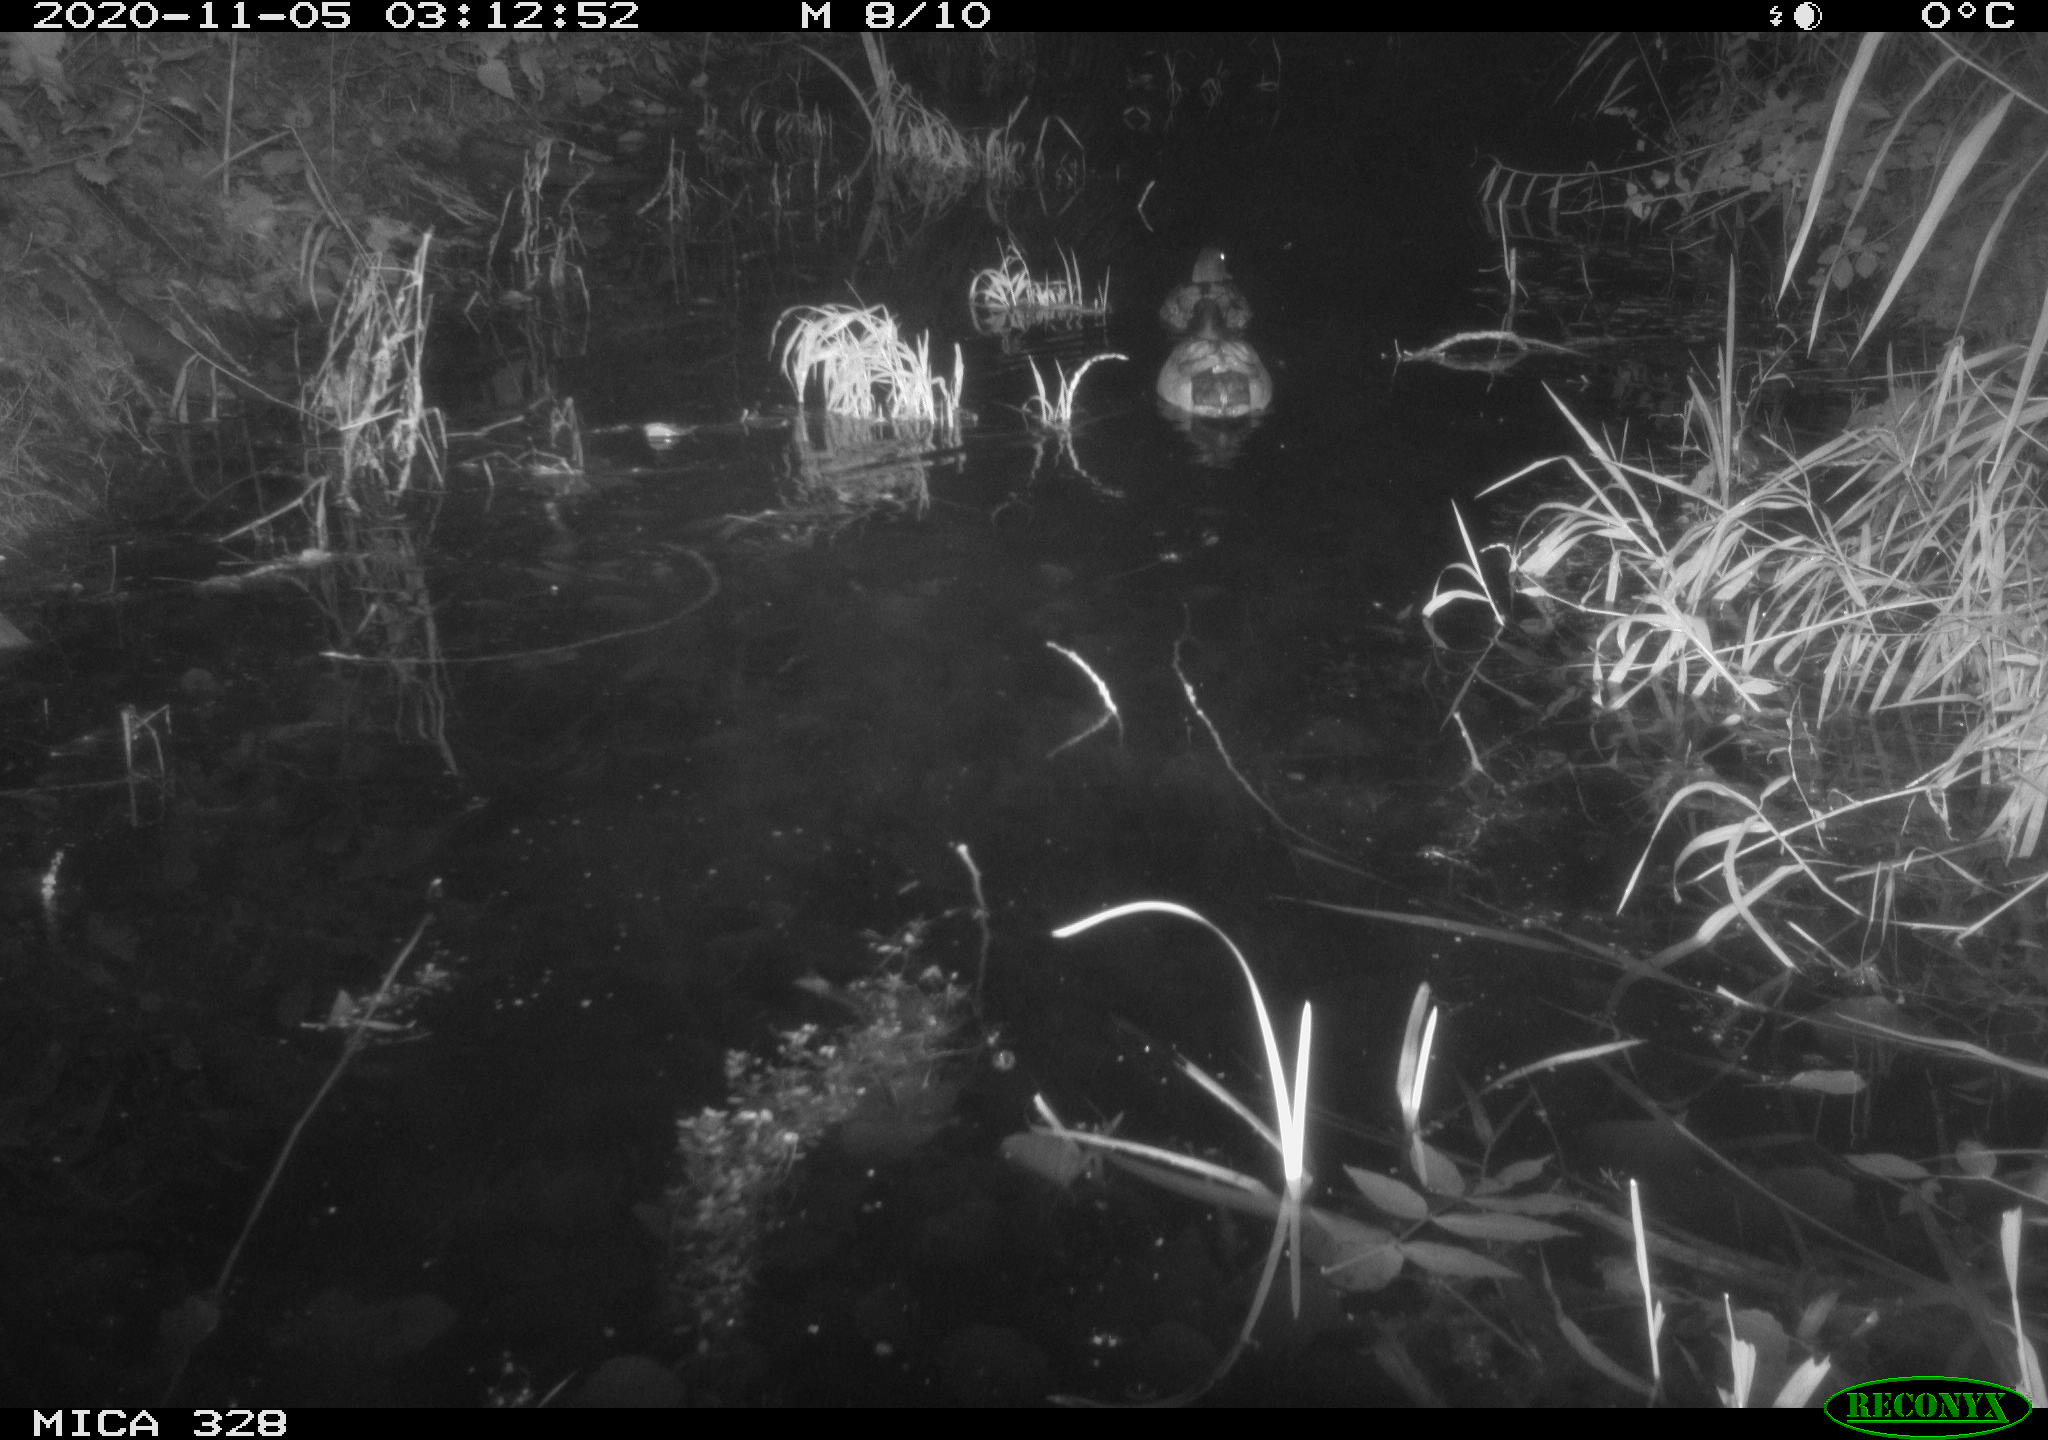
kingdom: Animalia
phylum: Chordata
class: Aves
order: Anseriformes
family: Anatidae
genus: Anas
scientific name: Anas platyrhynchos
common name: Mallard
